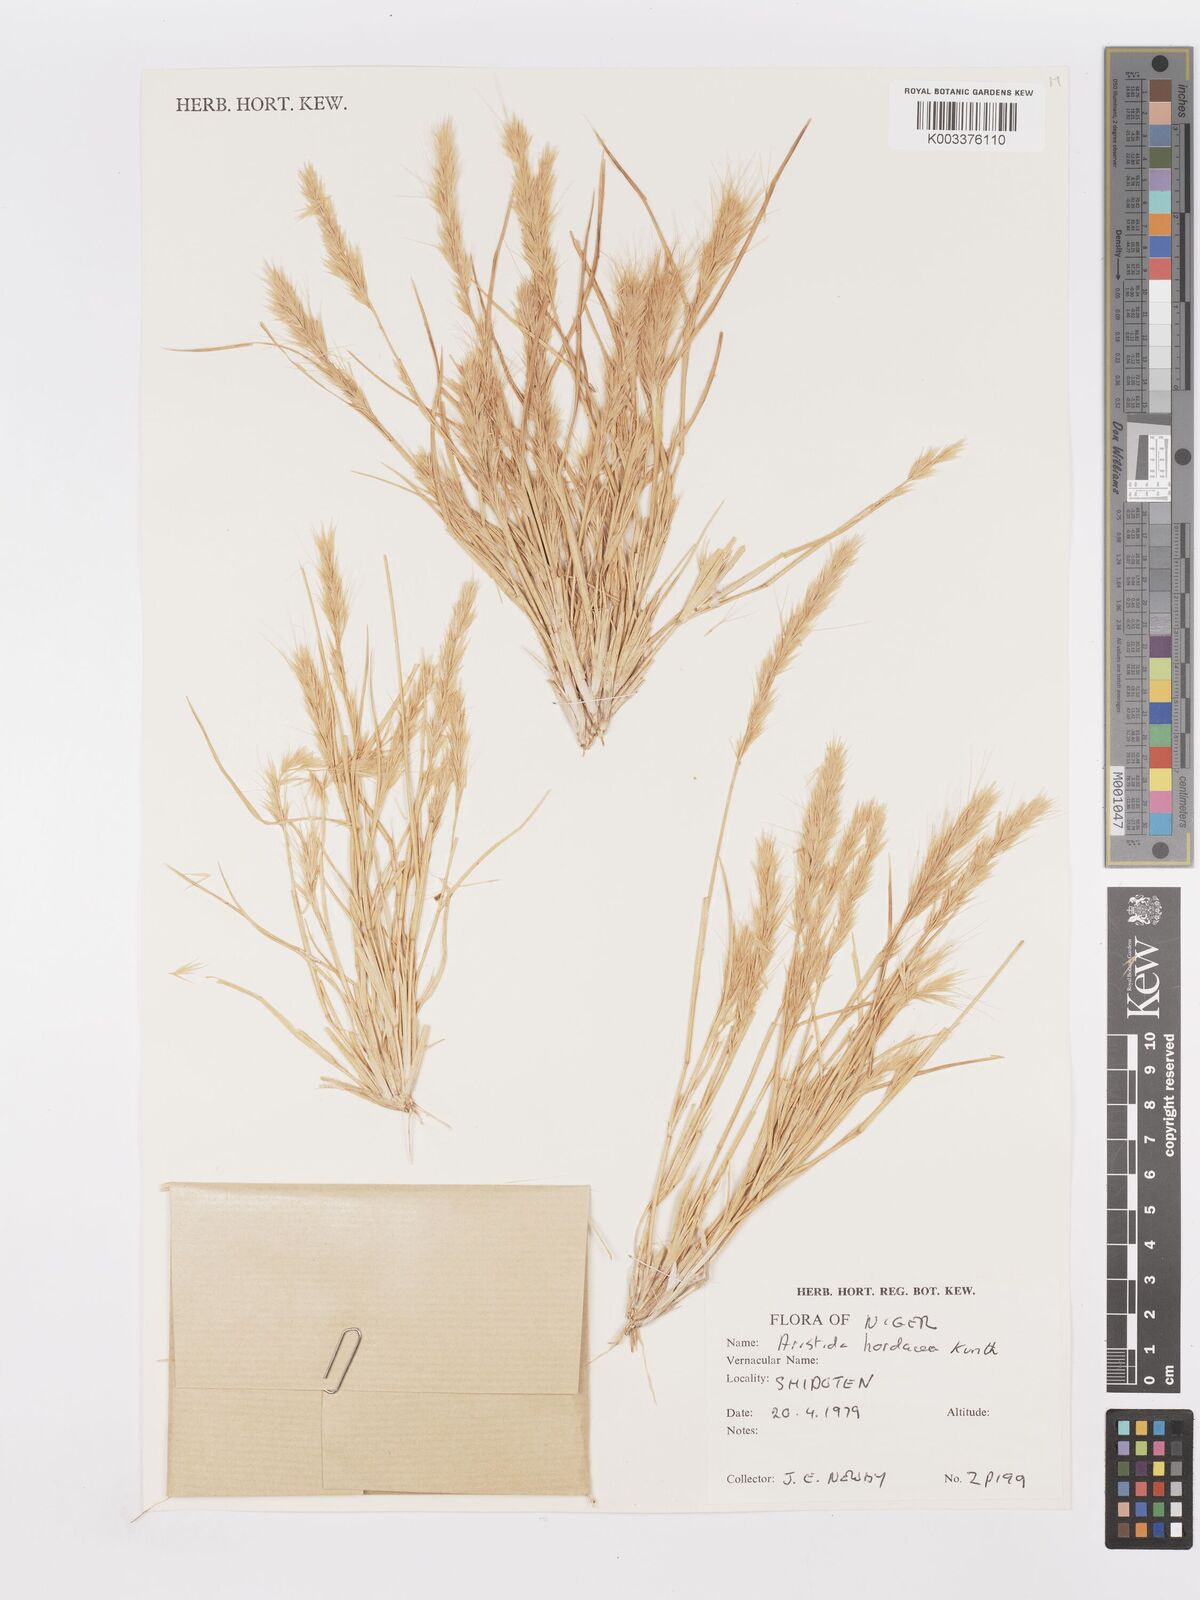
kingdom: Plantae
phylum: Tracheophyta
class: Liliopsida
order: Poales
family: Poaceae
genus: Aristida
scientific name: Aristida hordeacea
